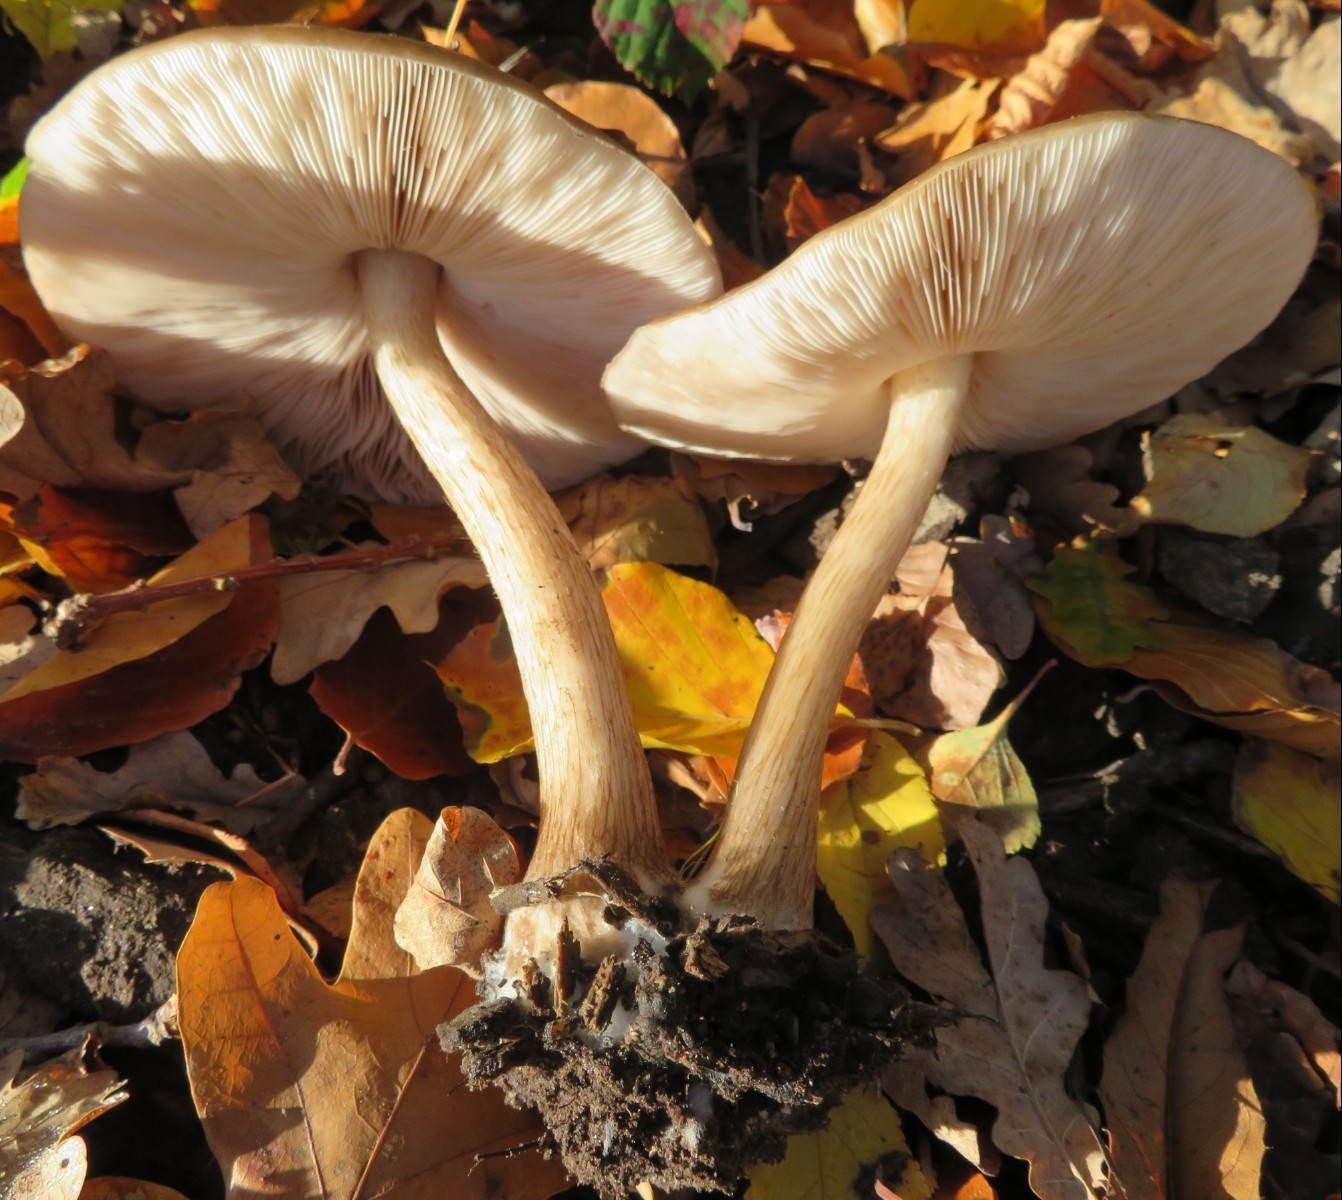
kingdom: Fungi
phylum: Basidiomycota
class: Agaricomycetes
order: Agaricales
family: Pluteaceae
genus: Pluteus
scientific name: Pluteus cervinus
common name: sodfarvet skærmhat
